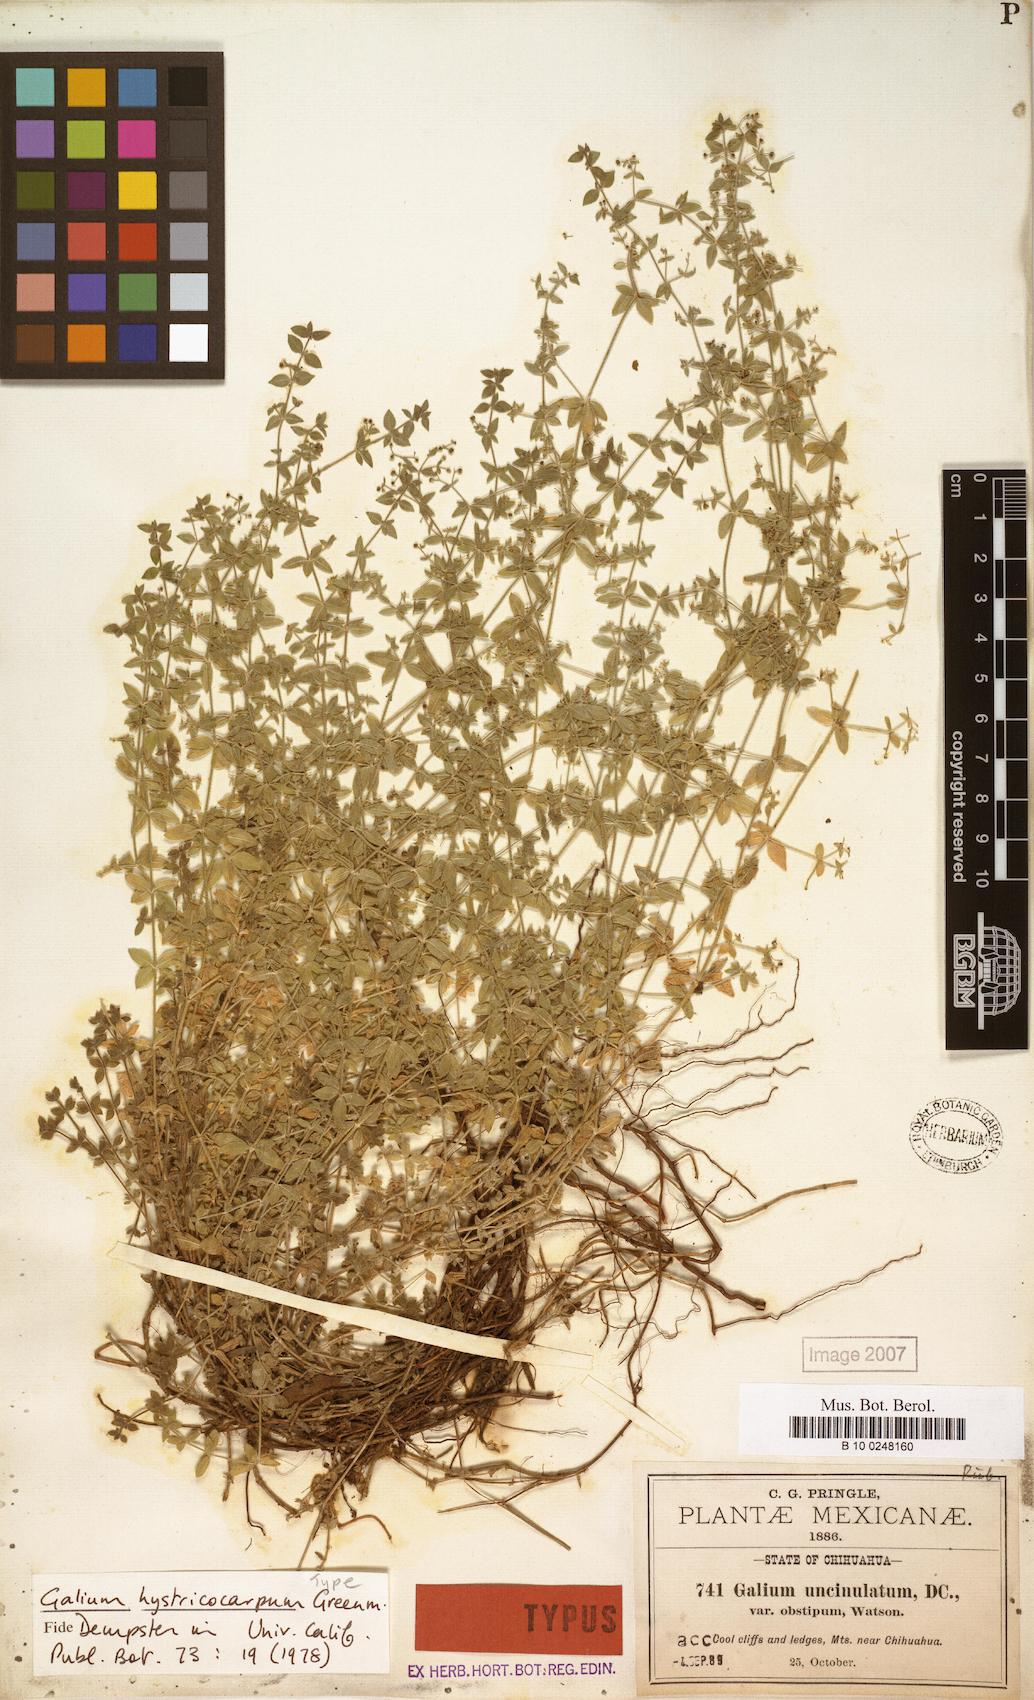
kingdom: Plantae
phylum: Tracheophyta
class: Magnoliopsida
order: Gentianales
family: Rubiaceae
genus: Galium
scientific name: Galium hystricocarpum
